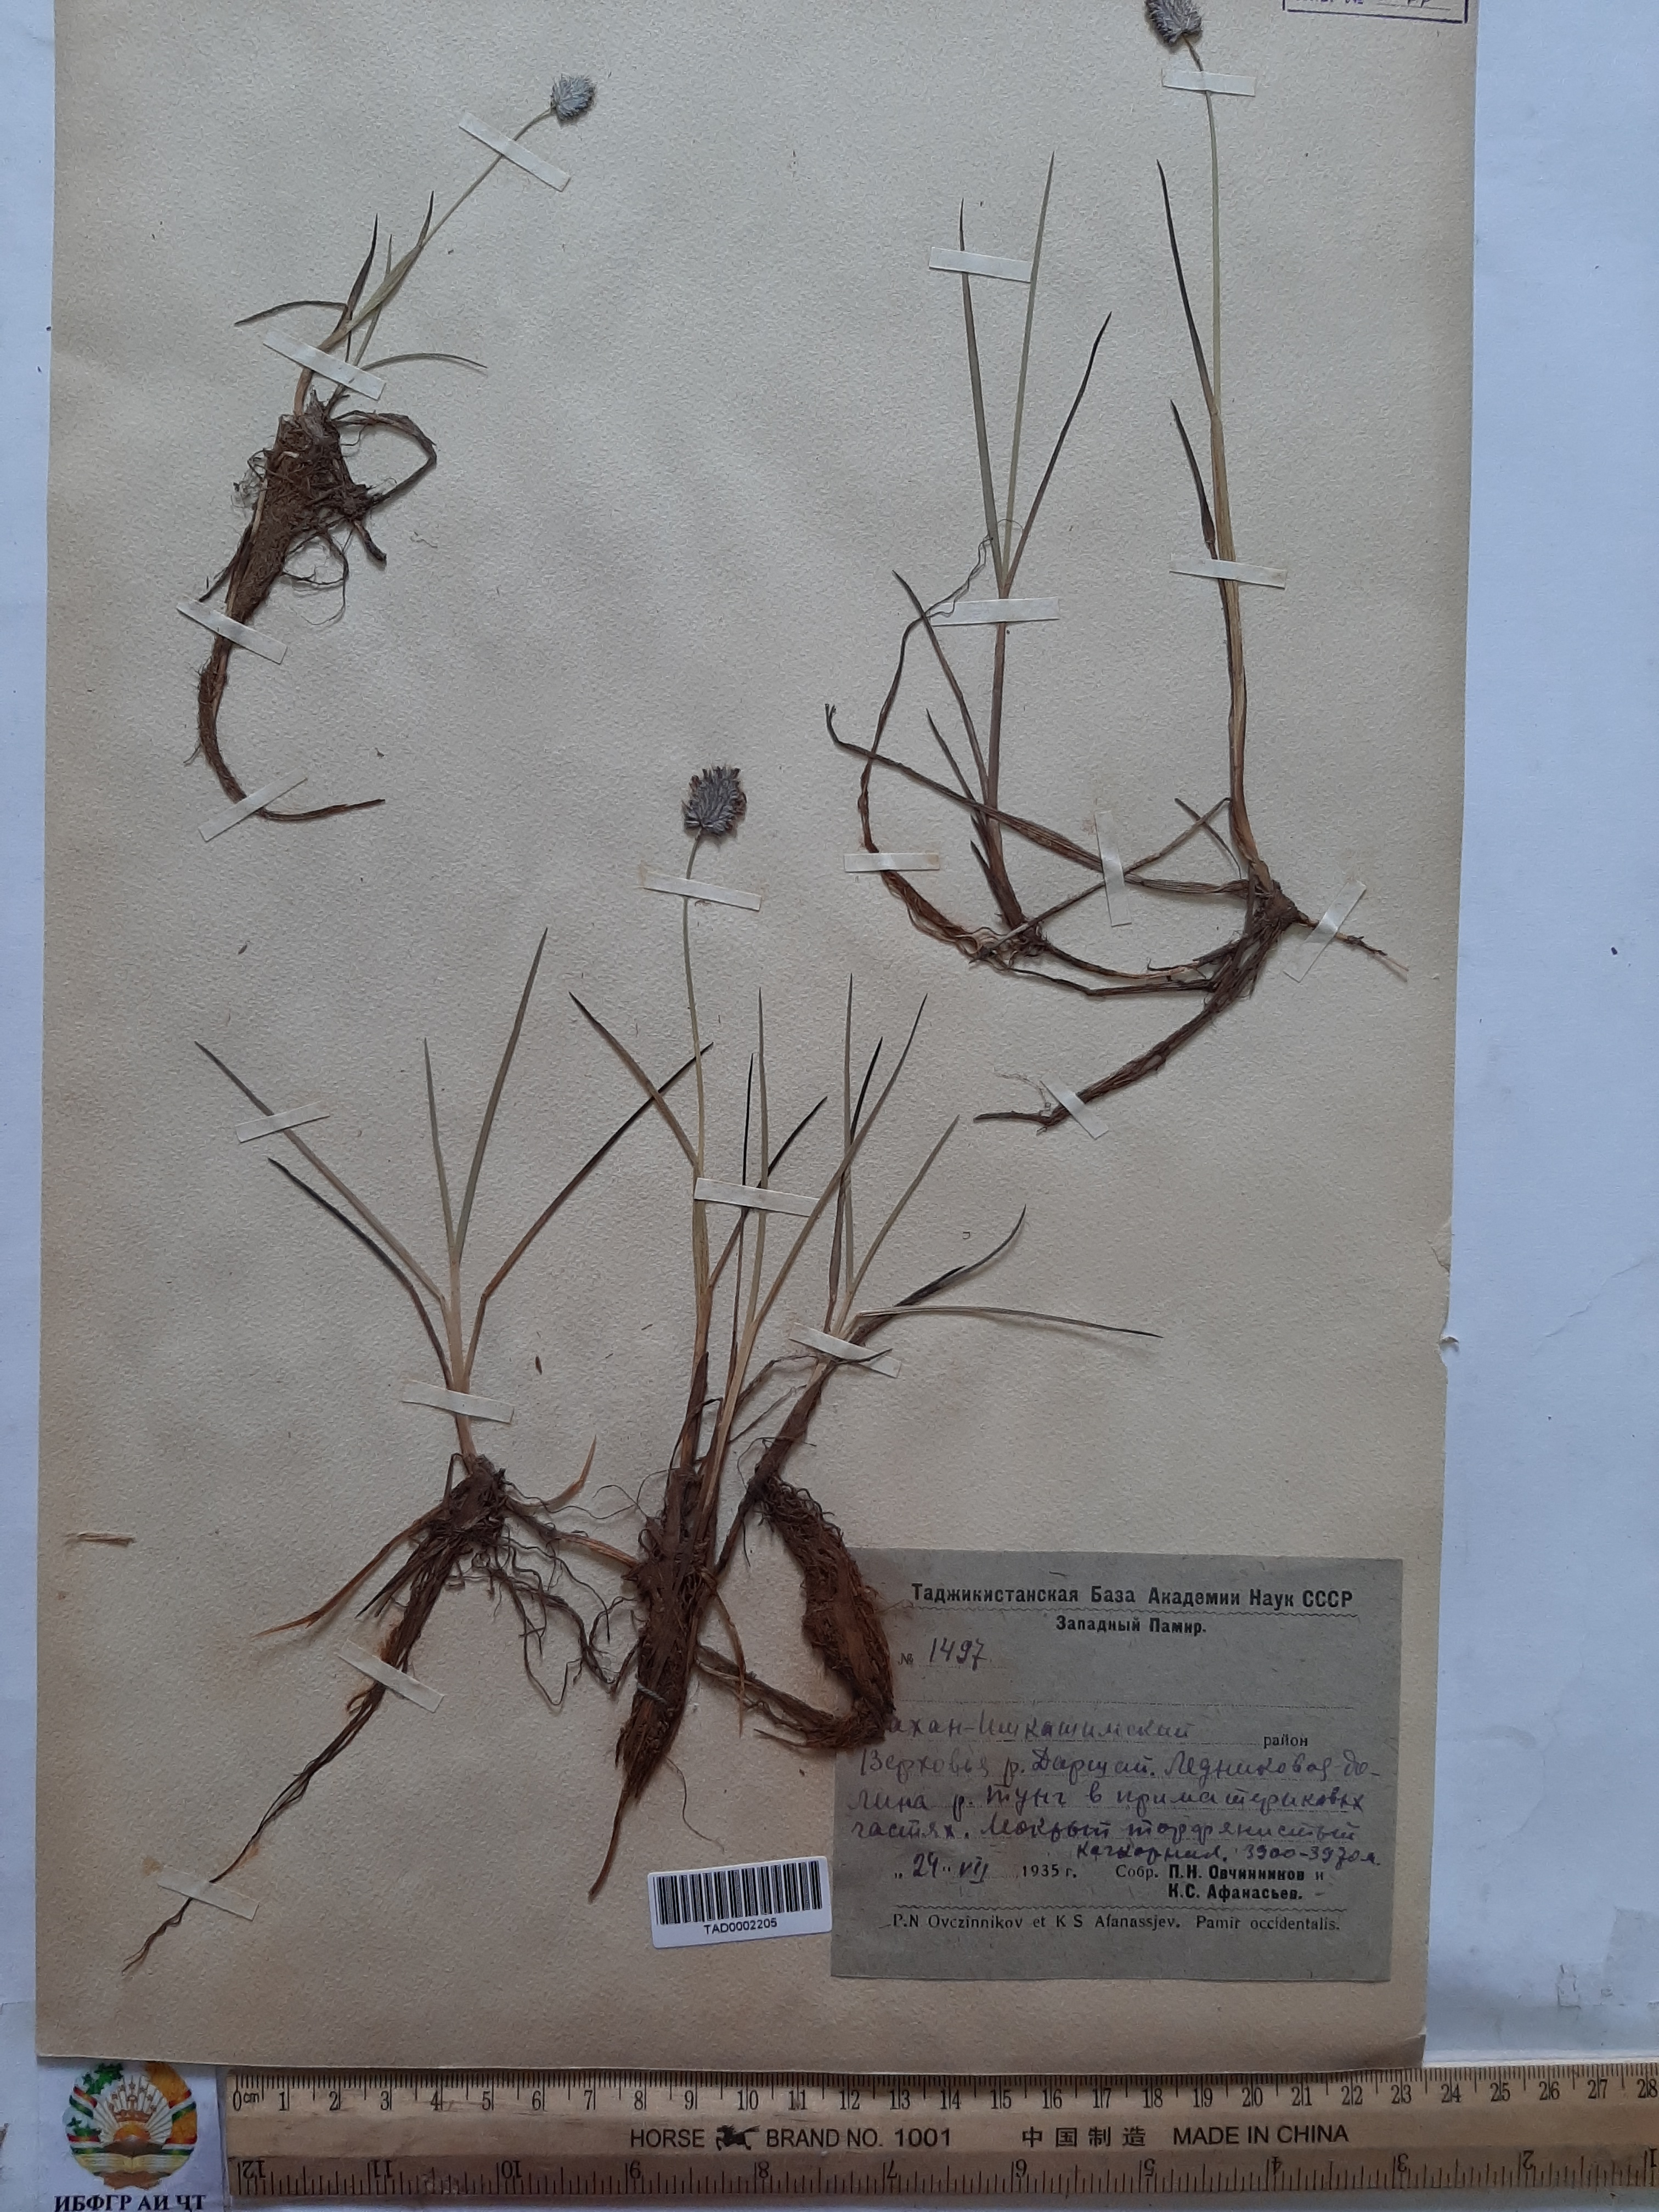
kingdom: Plantae
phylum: Tracheophyta
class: Liliopsida
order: Poales
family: Poaceae
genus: Phleum
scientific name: Phleum alpinum
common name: Alpine cat's-tail
